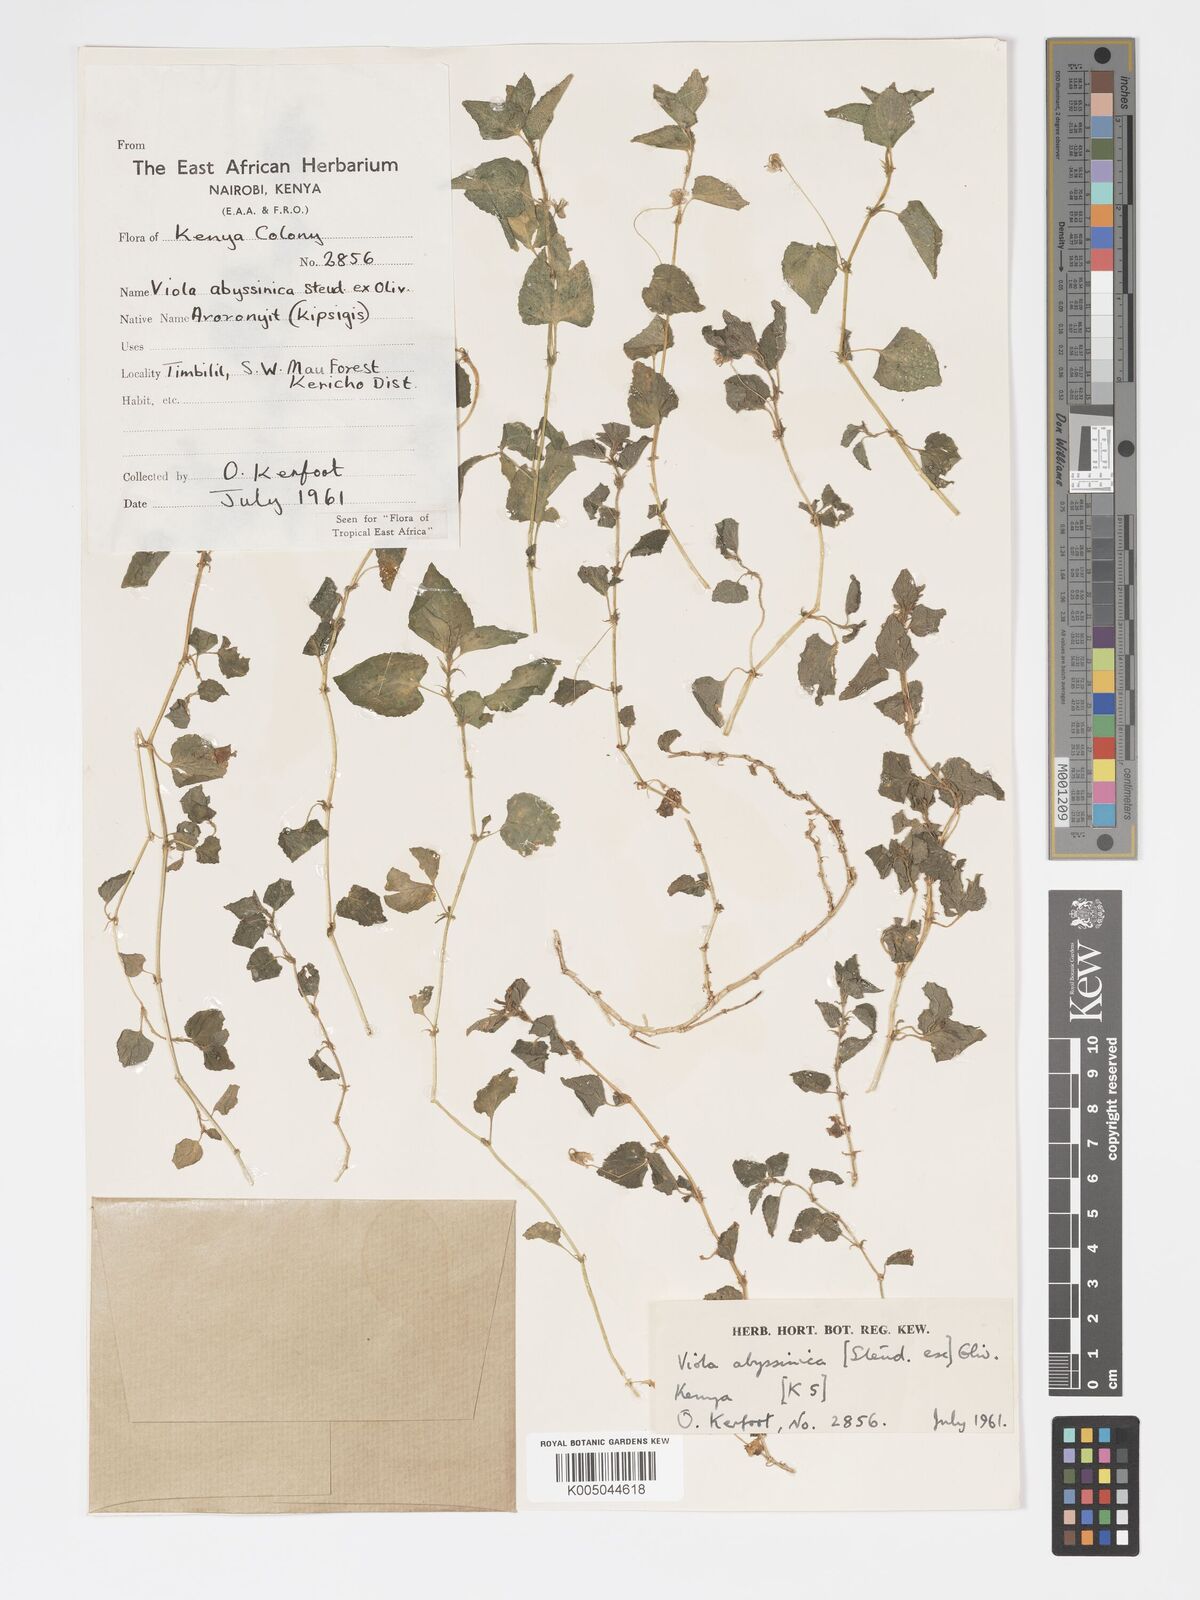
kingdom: Plantae
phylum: Tracheophyta
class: Magnoliopsida
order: Malpighiales
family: Violaceae
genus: Viola
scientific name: Viola abyssinica
